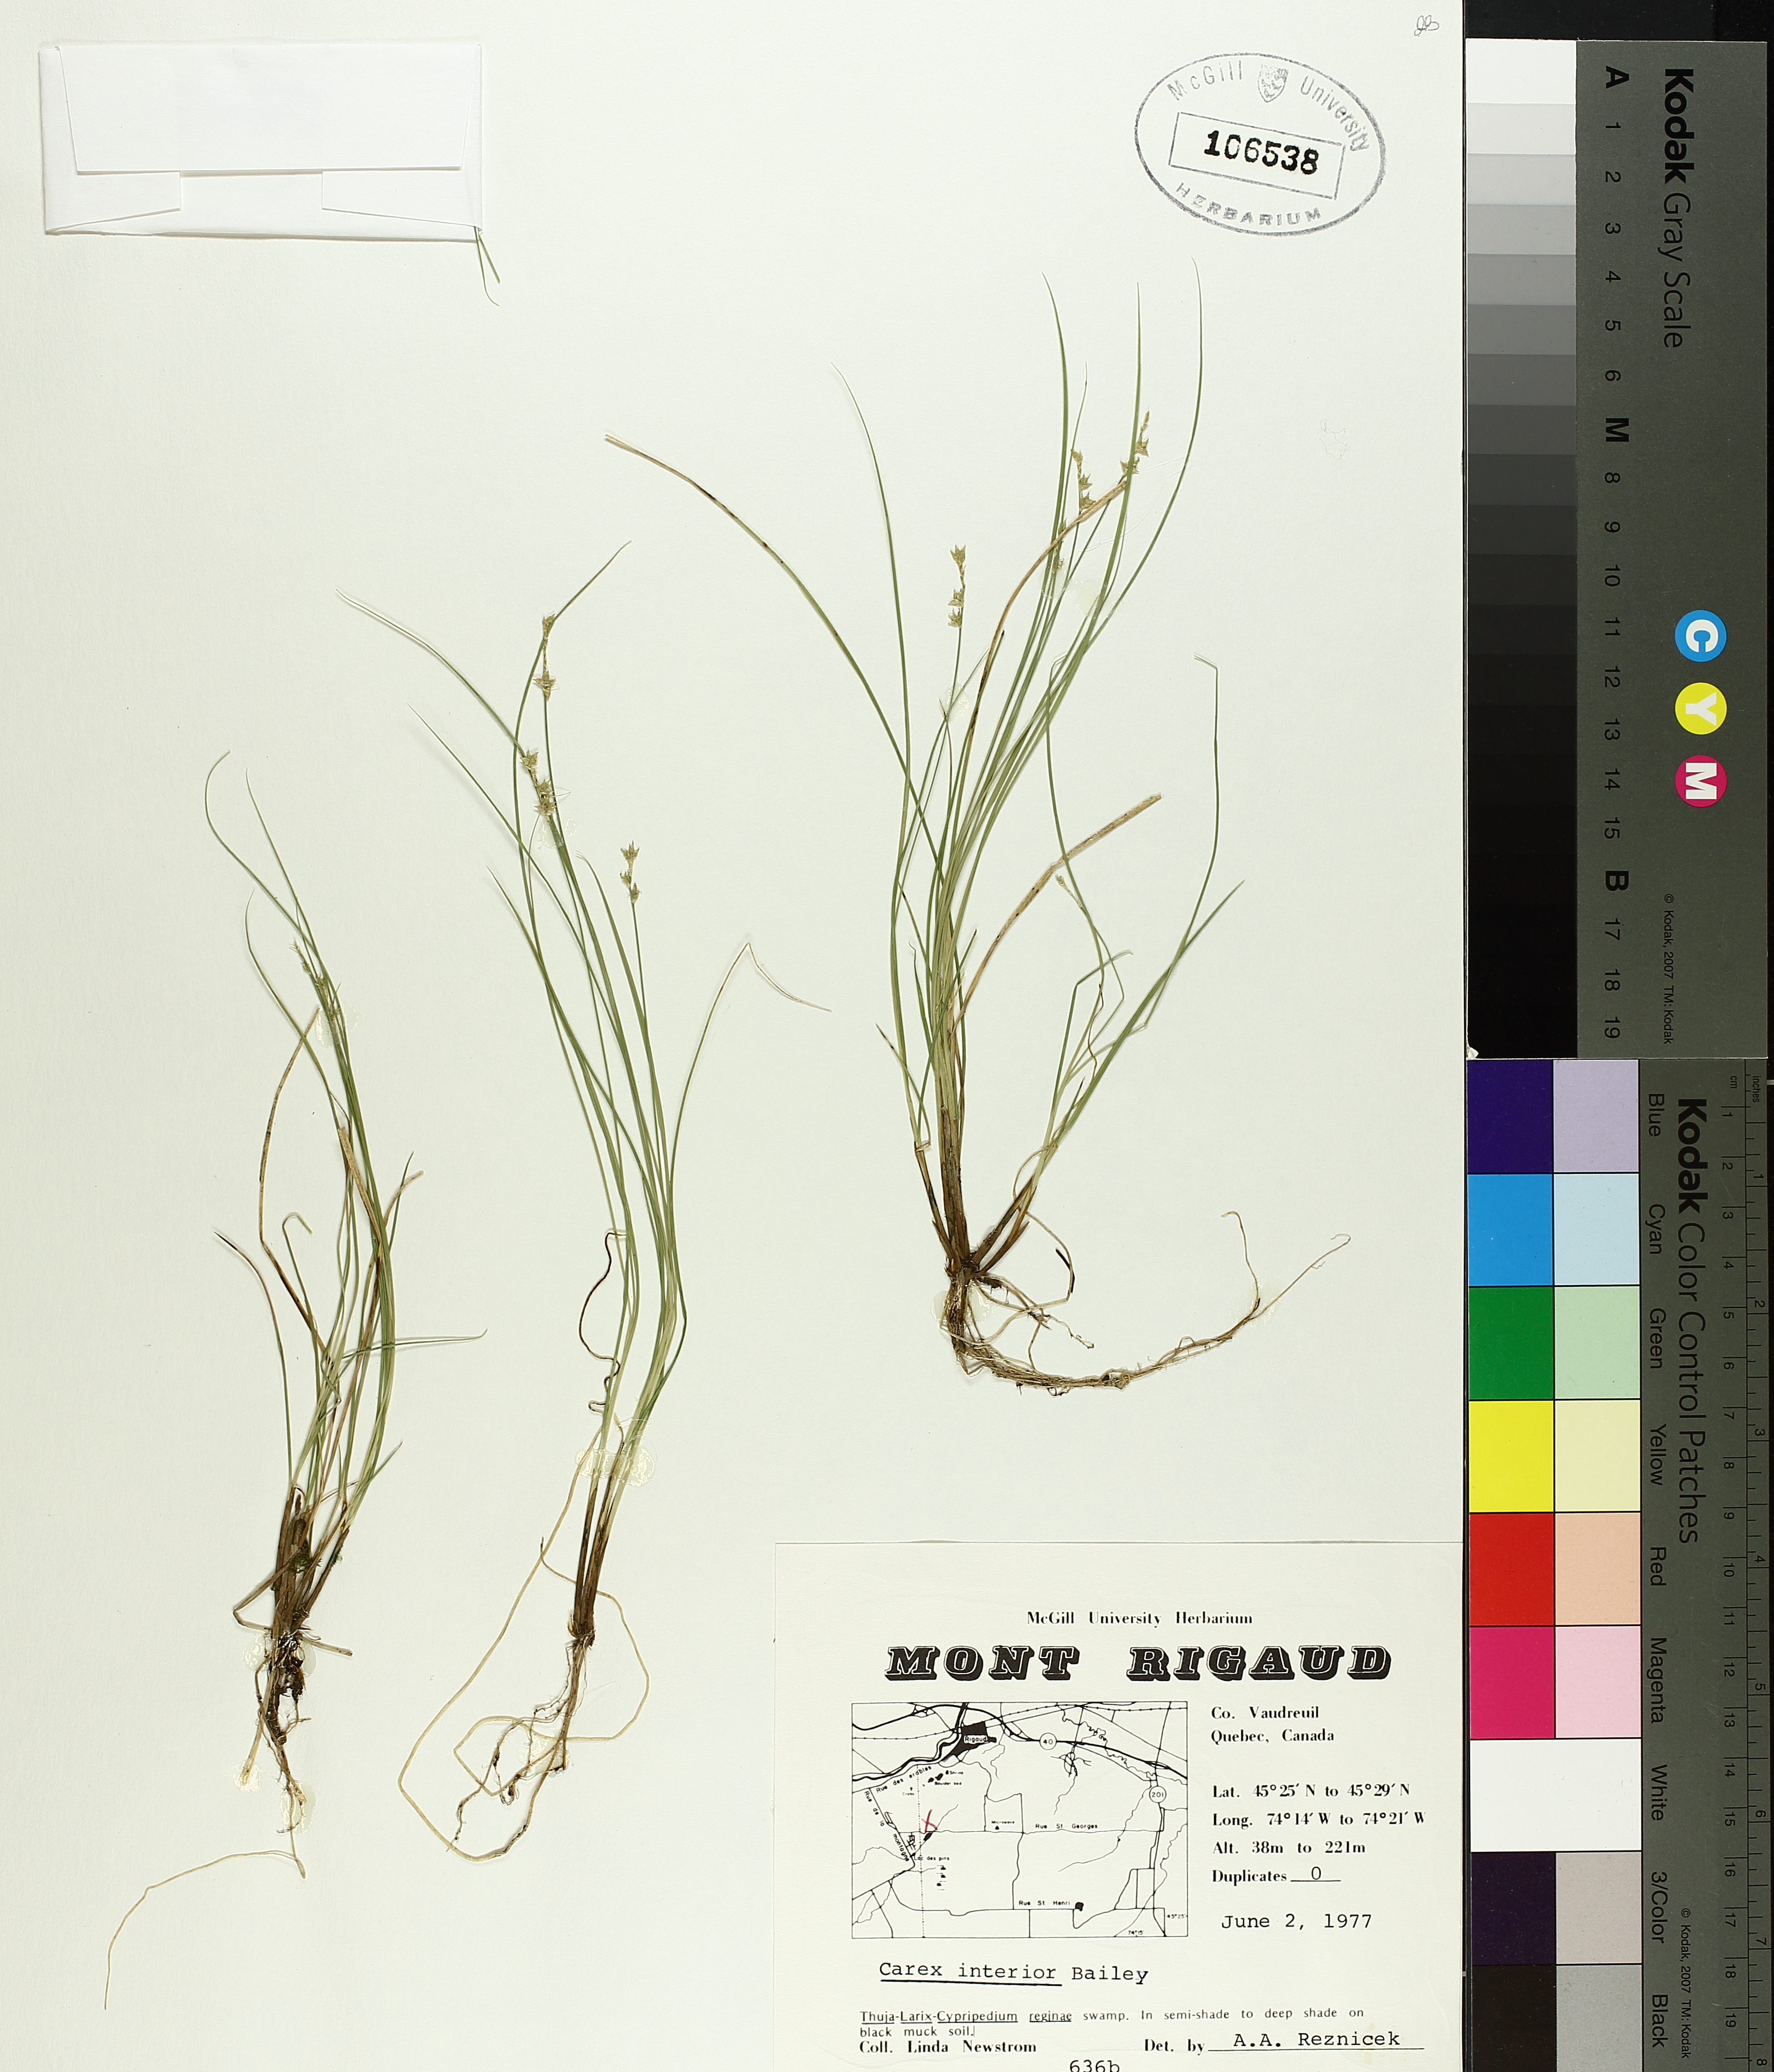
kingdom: Plantae
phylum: Tracheophyta
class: Liliopsida
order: Poales
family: Cyperaceae
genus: Carex
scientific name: Carex interior
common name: Inland sedge
